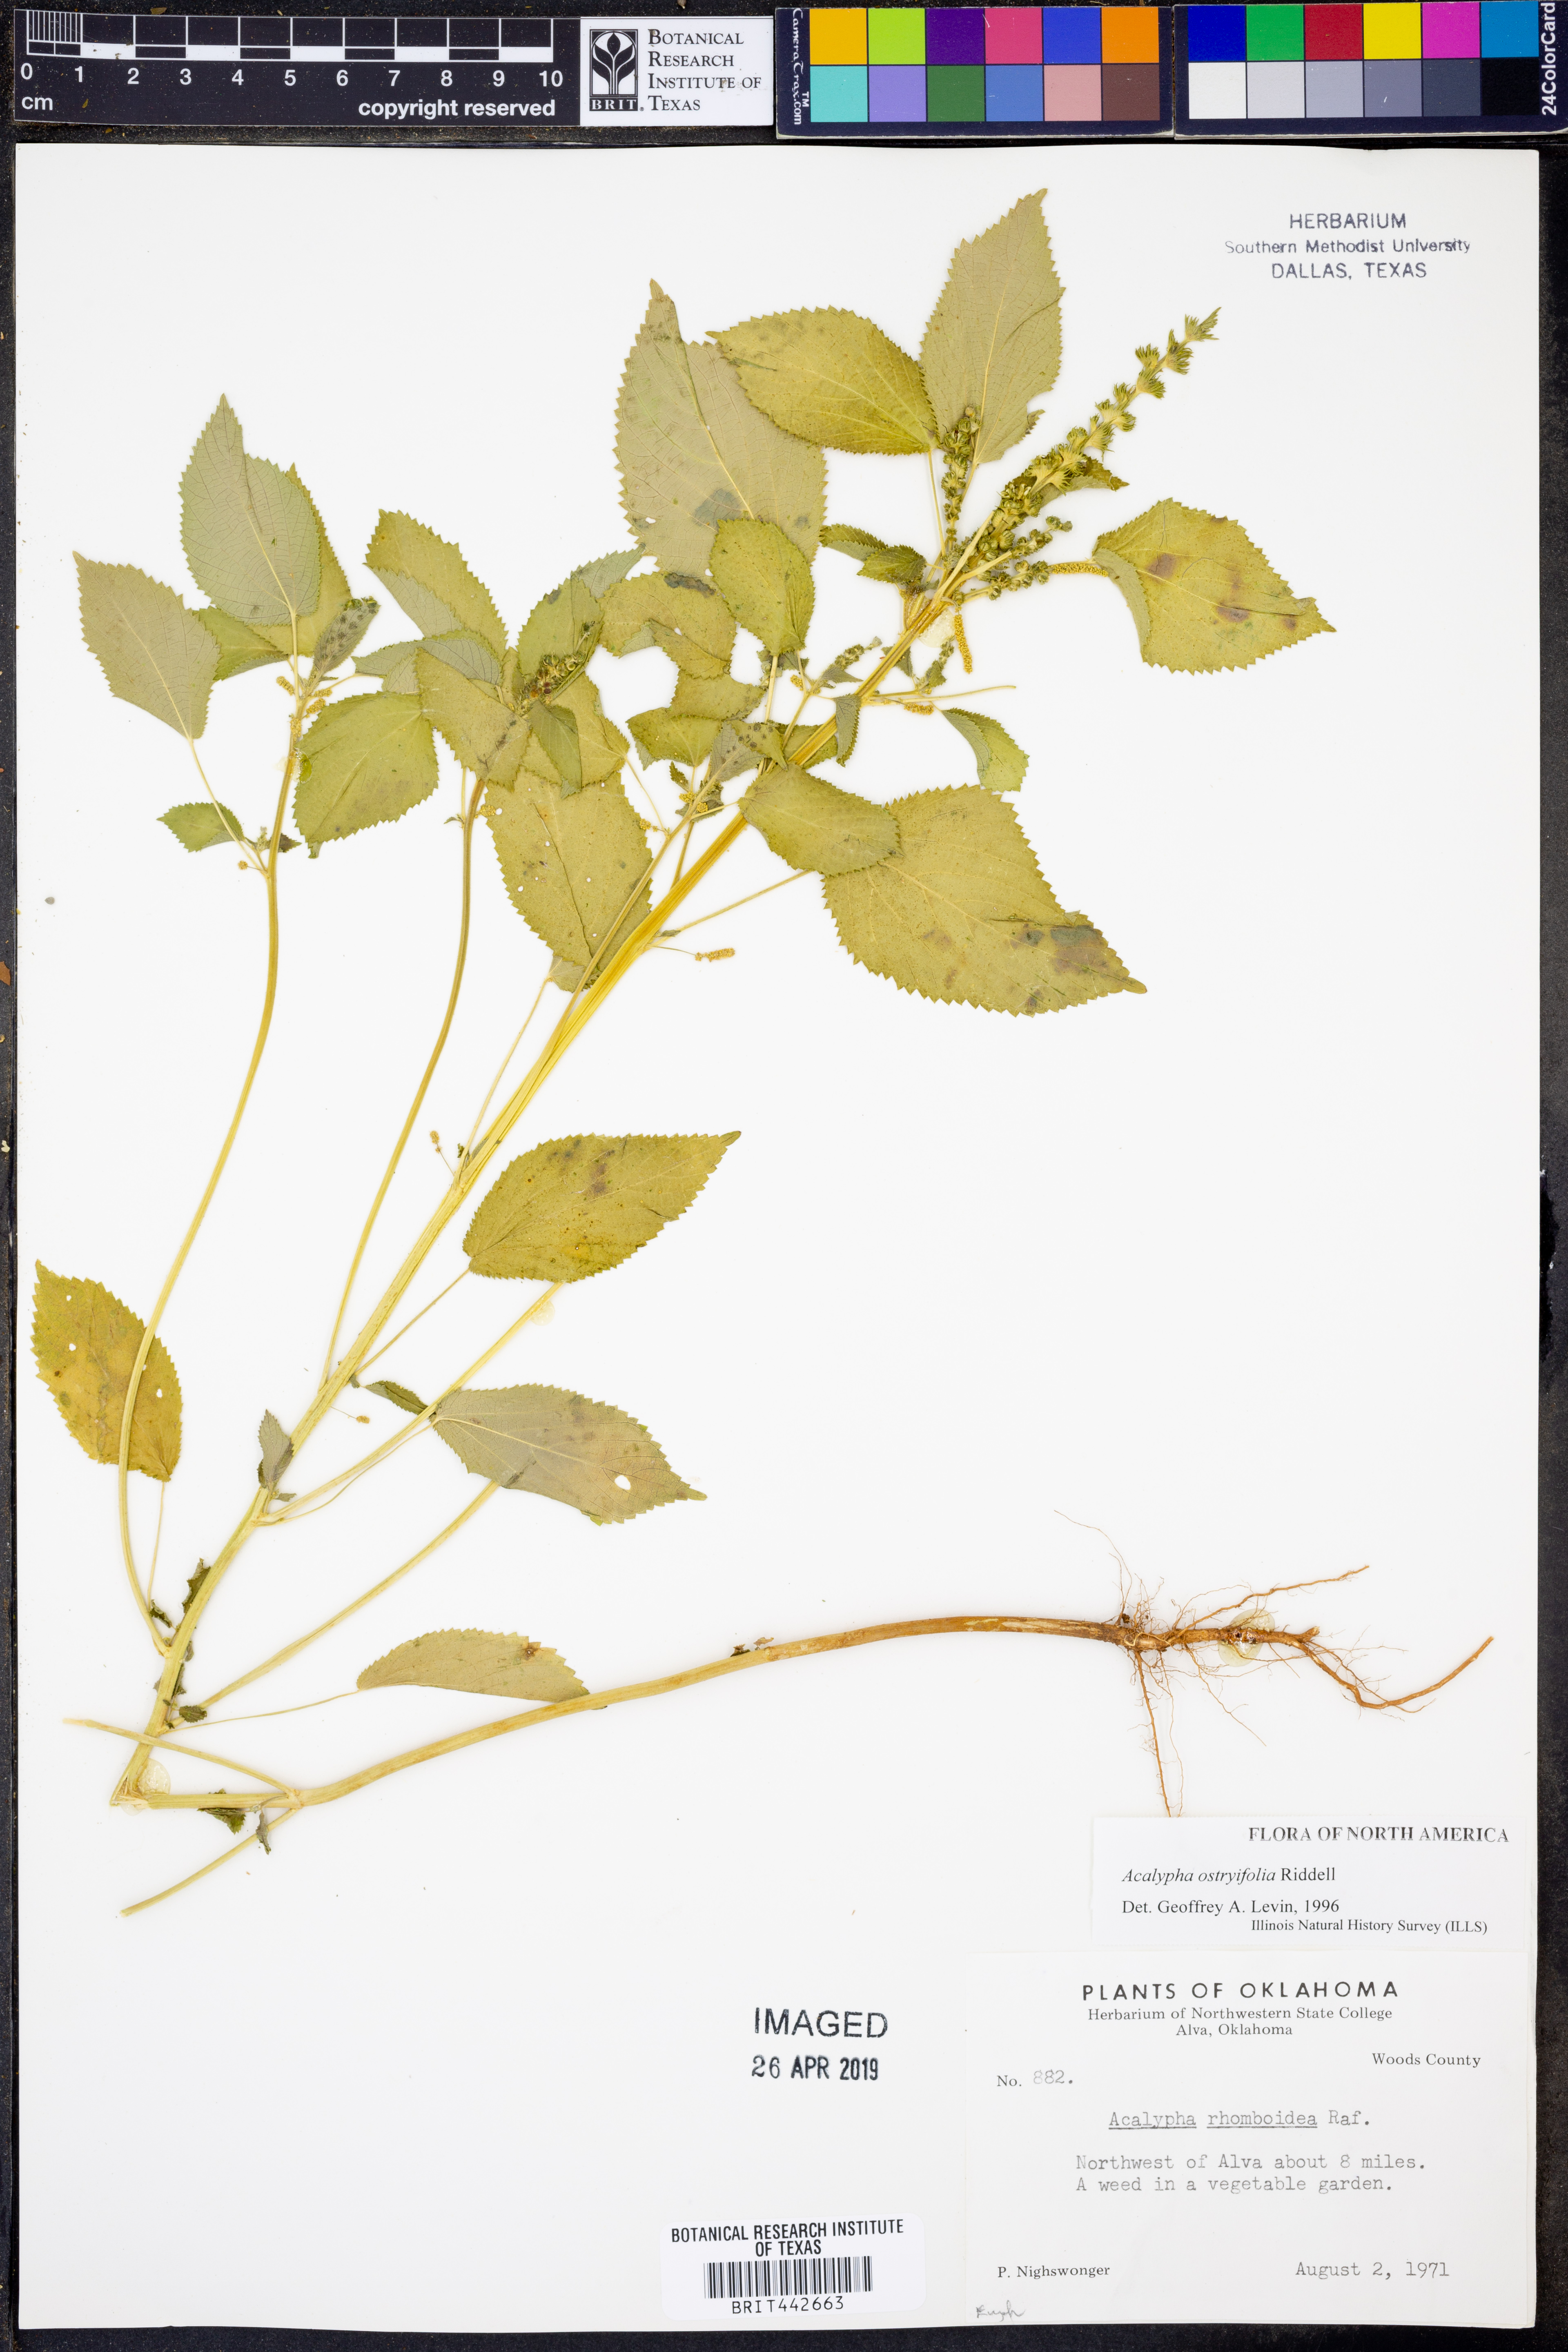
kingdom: Plantae
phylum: Tracheophyta
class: Magnoliopsida
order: Malpighiales
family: Euphorbiaceae
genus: Acalypha
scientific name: Acalypha persimilis
